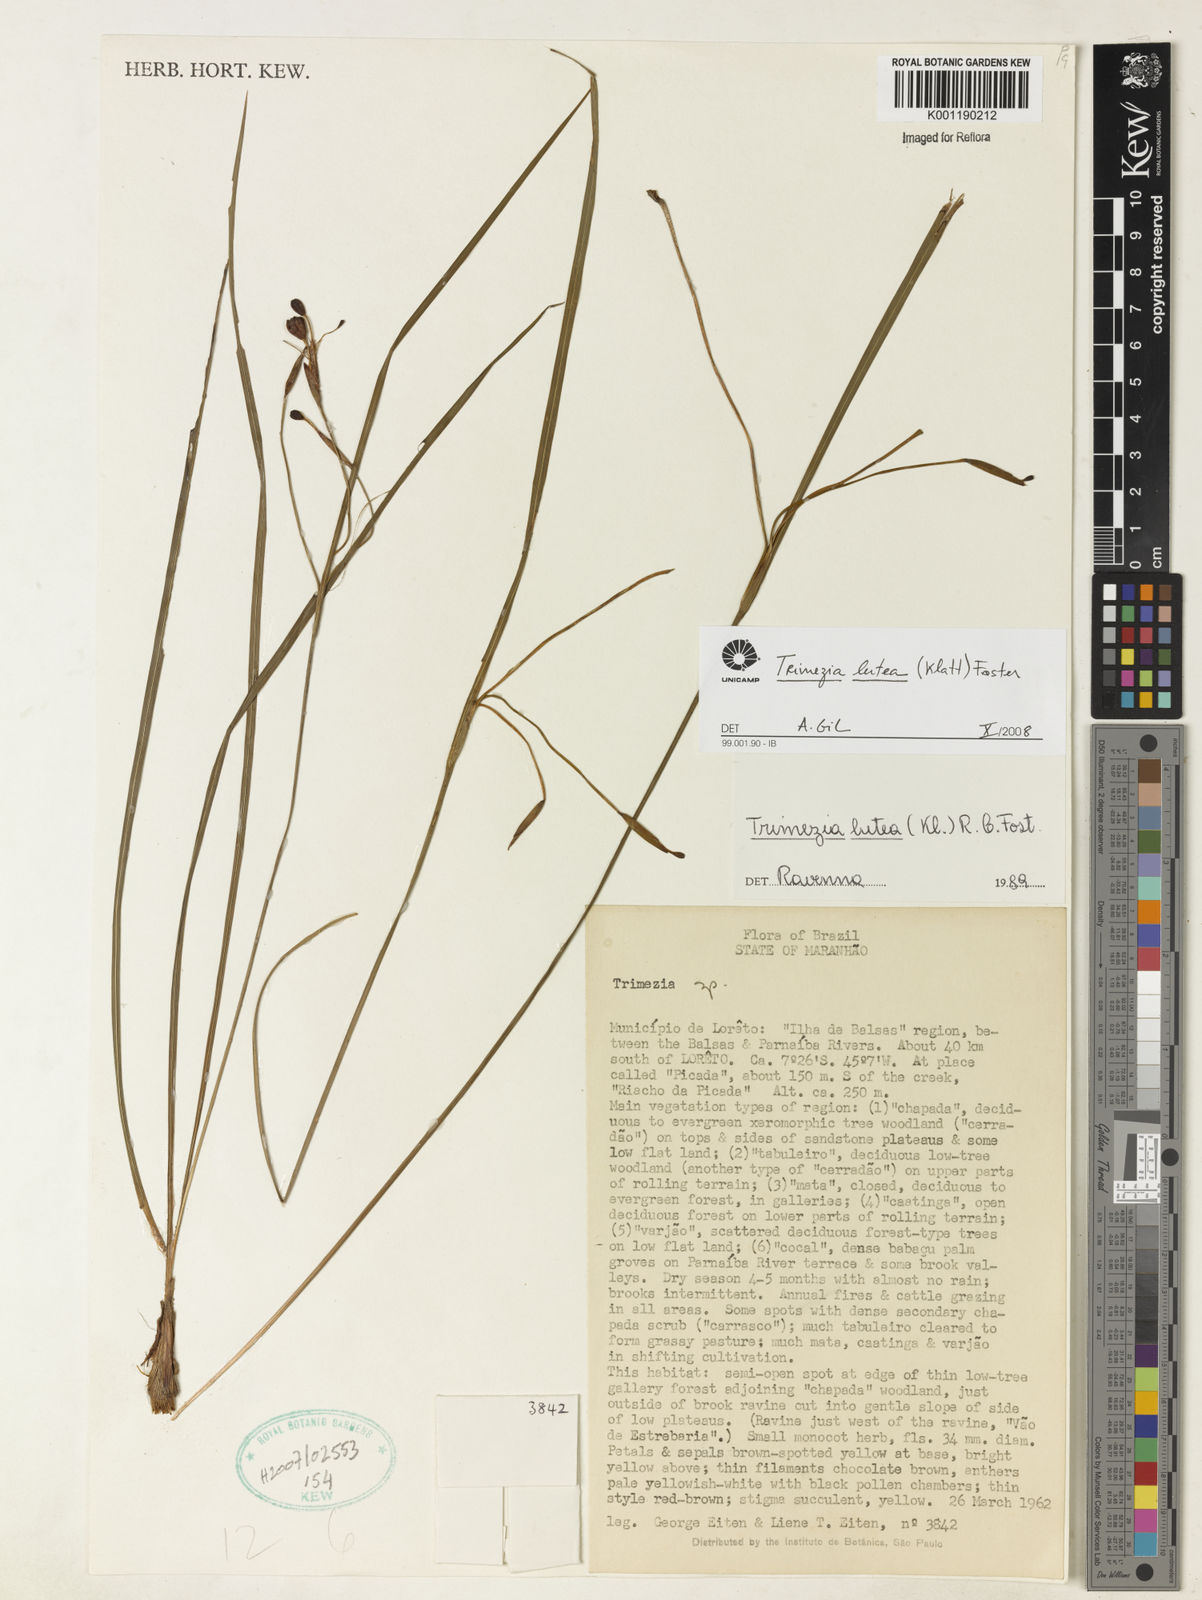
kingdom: Plantae
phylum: Tracheophyta
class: Liliopsida
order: Asparagales
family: Iridaceae
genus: Trimezia
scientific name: Trimezia longifolia
